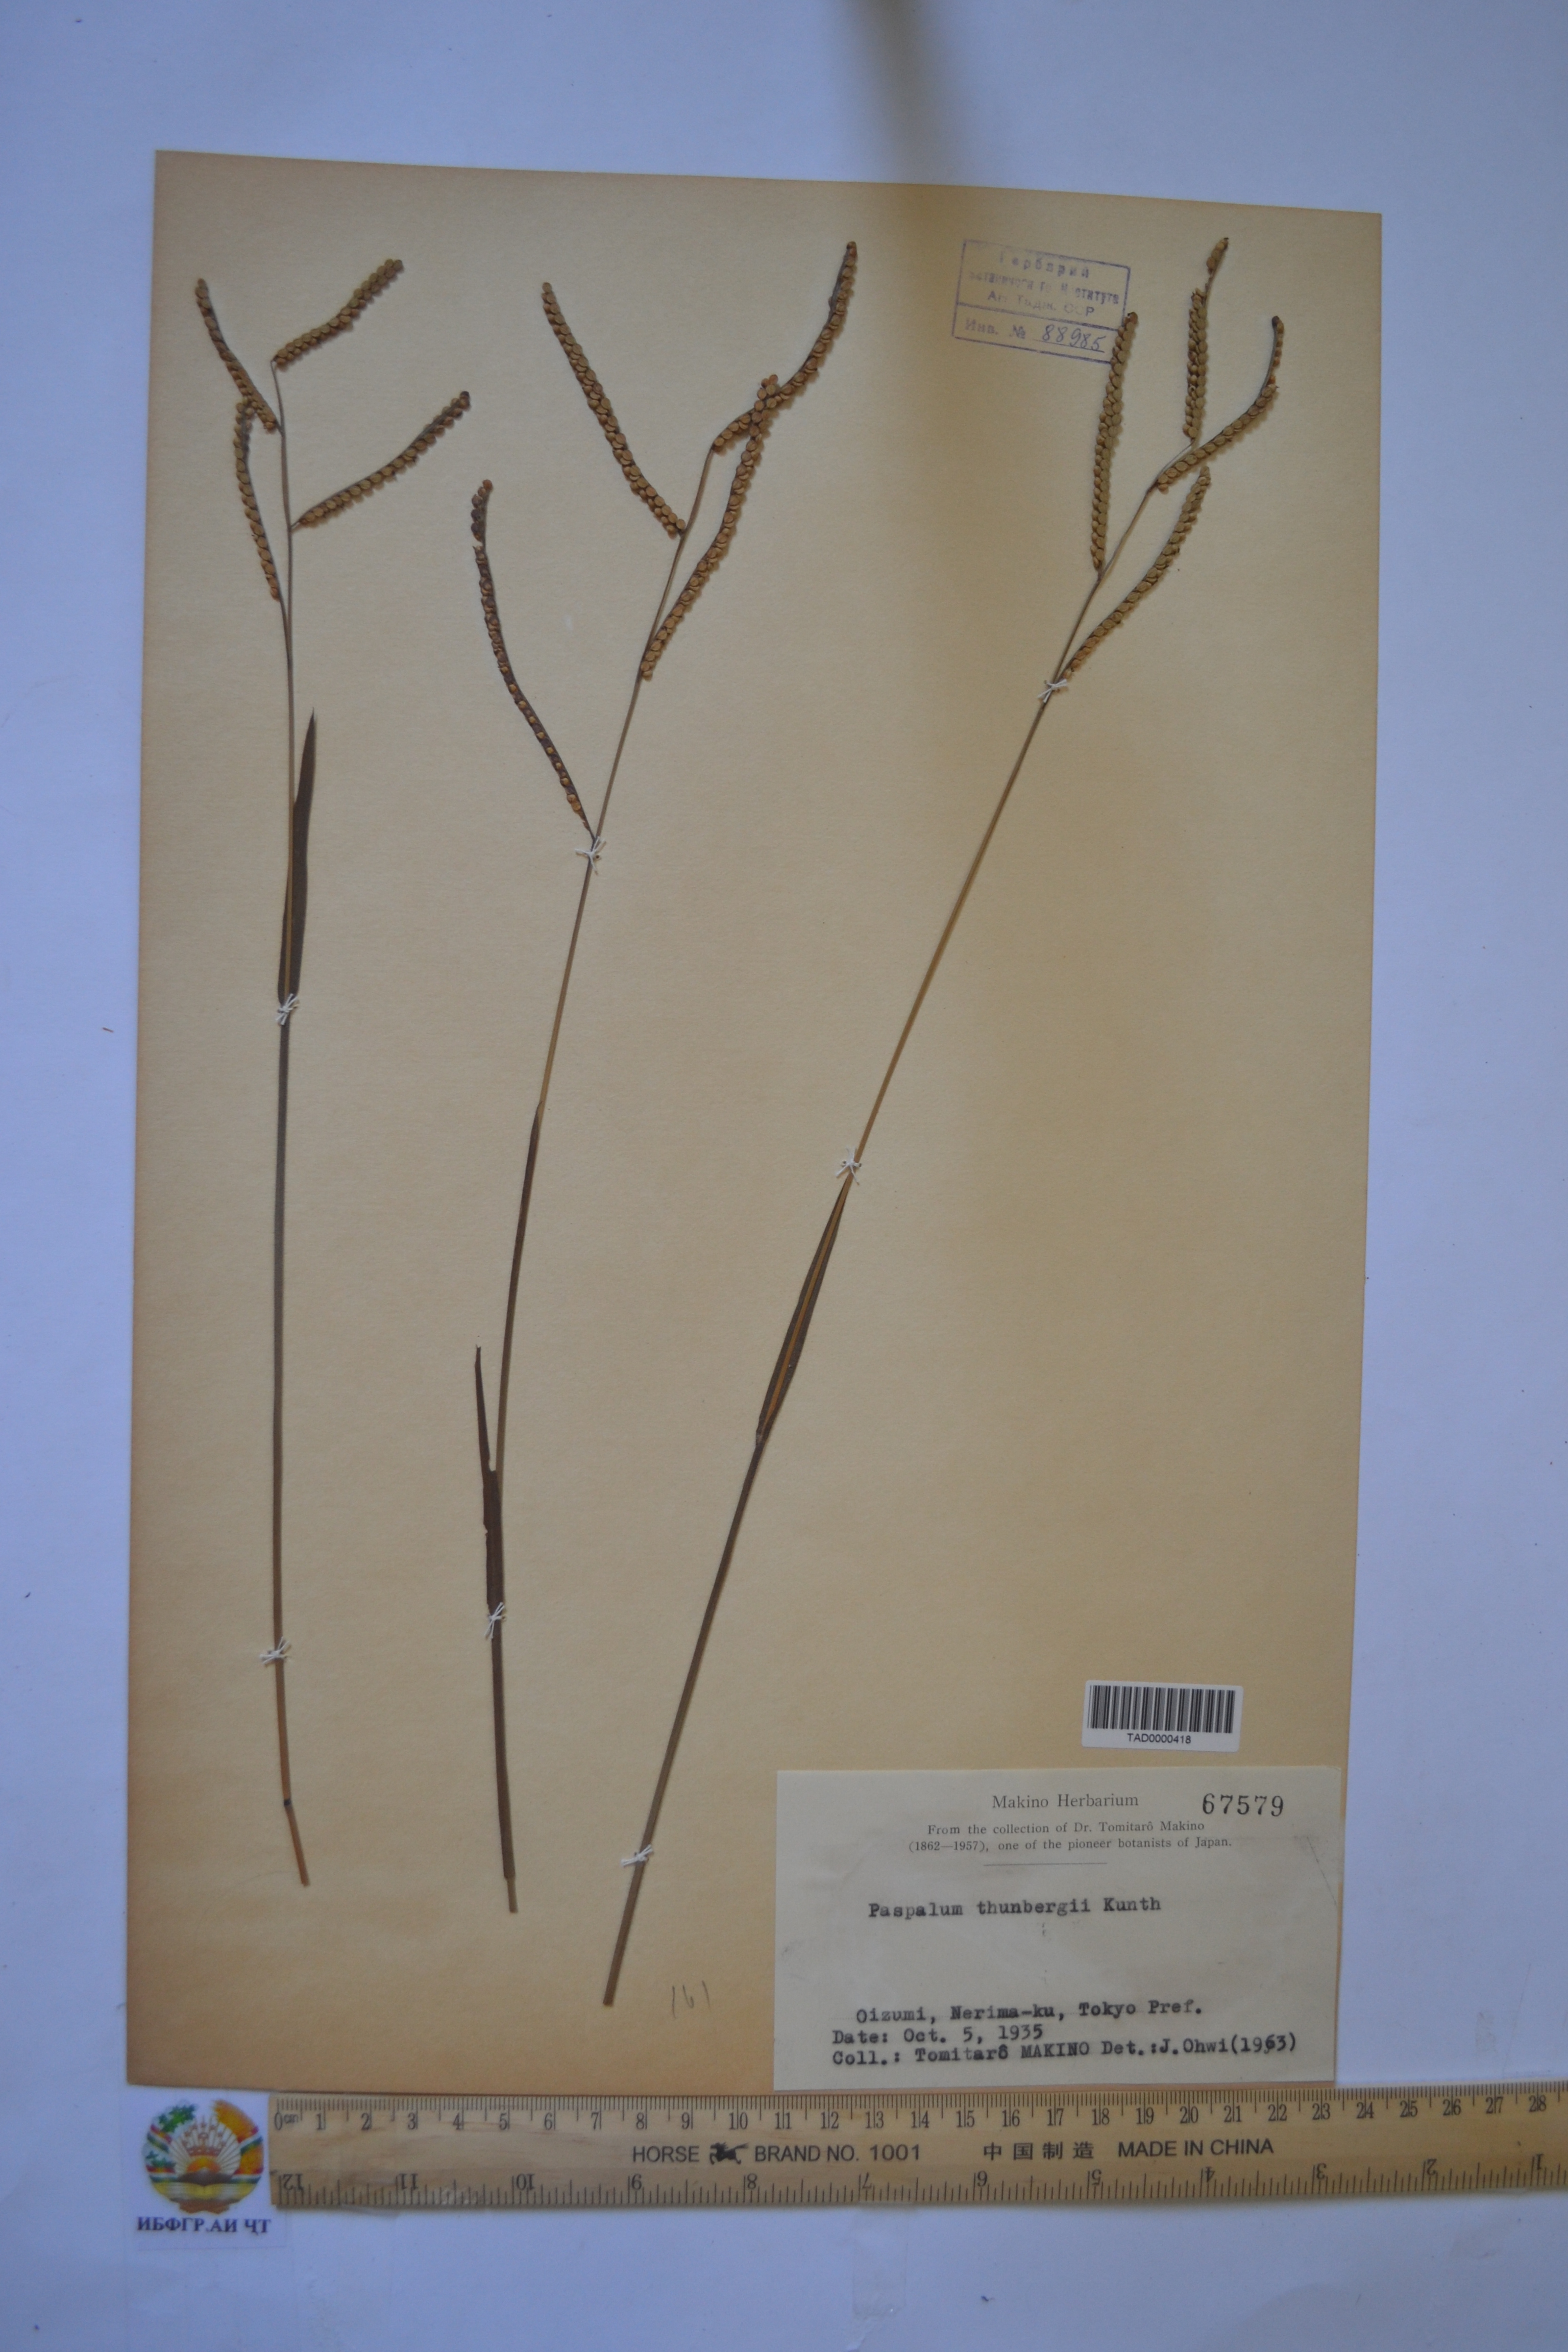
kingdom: Plantae
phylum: Tracheophyta
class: Liliopsida
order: Poales
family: Poaceae
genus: Paspalum
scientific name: Paspalum thunbergii
